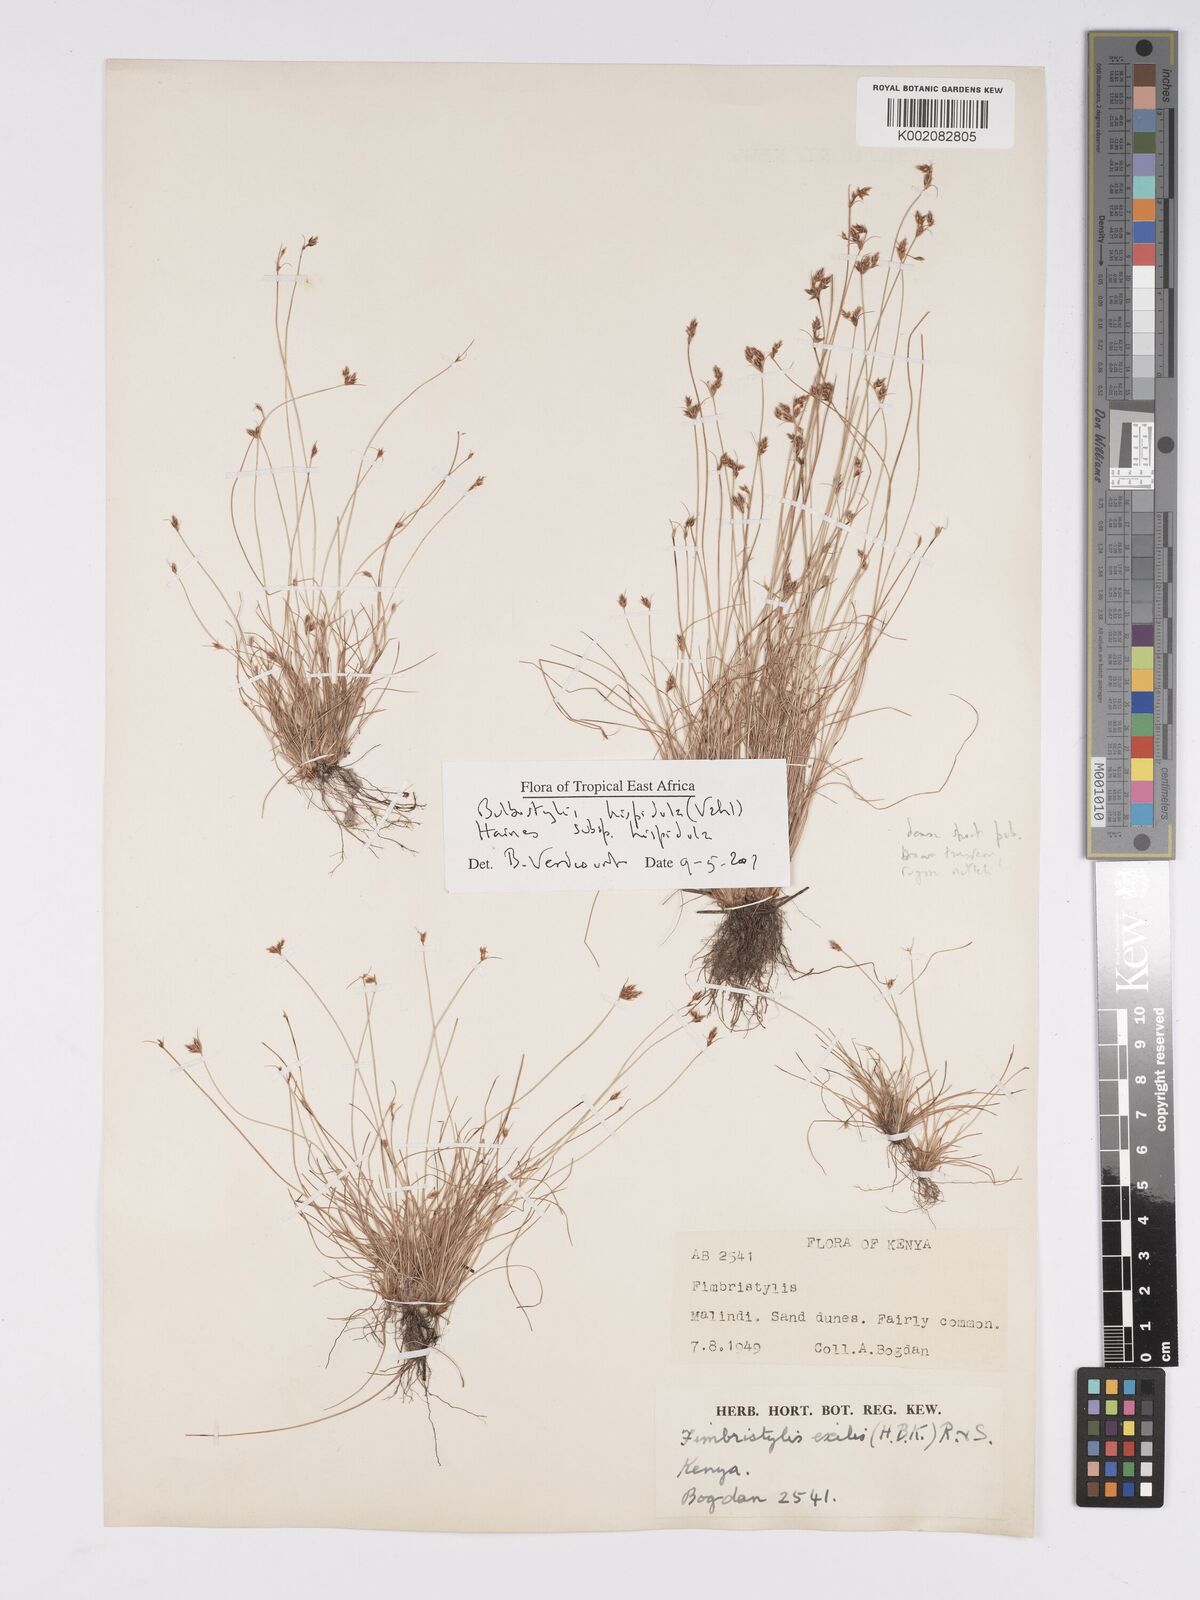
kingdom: Plantae
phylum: Tracheophyta
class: Liliopsida
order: Poales
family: Cyperaceae
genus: Bulbostylis
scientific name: Bulbostylis hispidula
